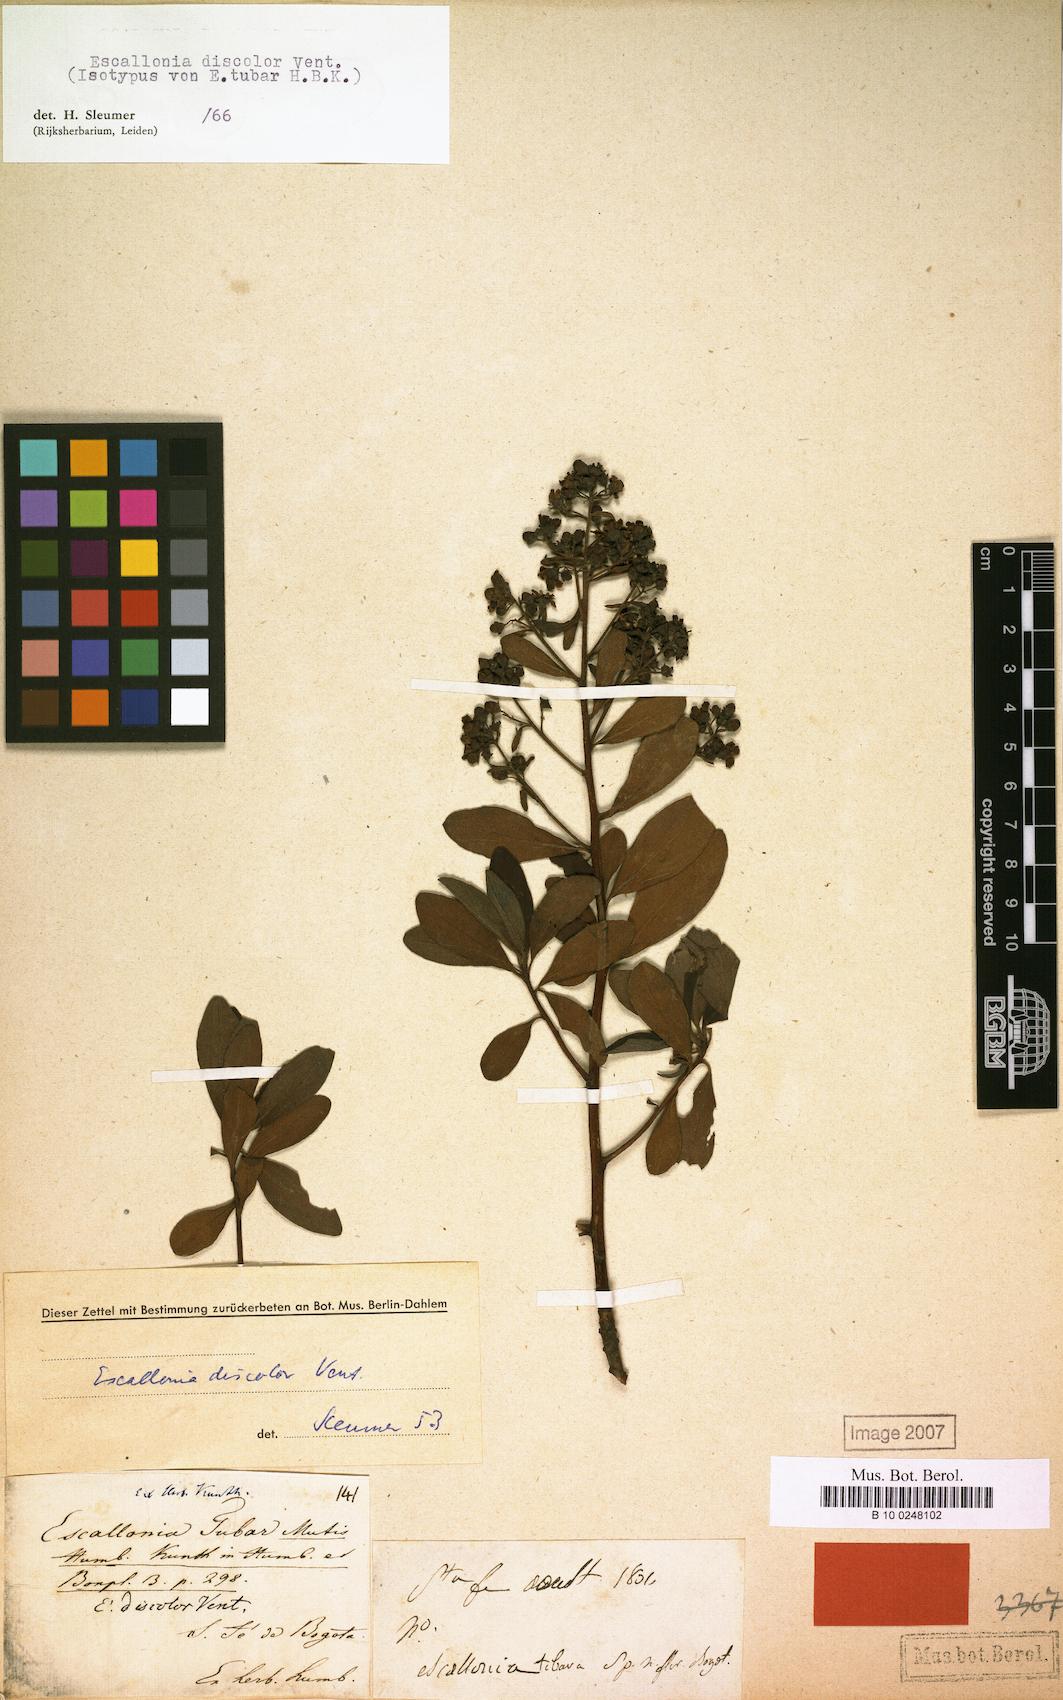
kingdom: Plantae
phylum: Tracheophyta
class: Magnoliopsida
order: Escalloniales
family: Escalloniaceae
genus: Escallonia
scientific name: Escallonia discolor
